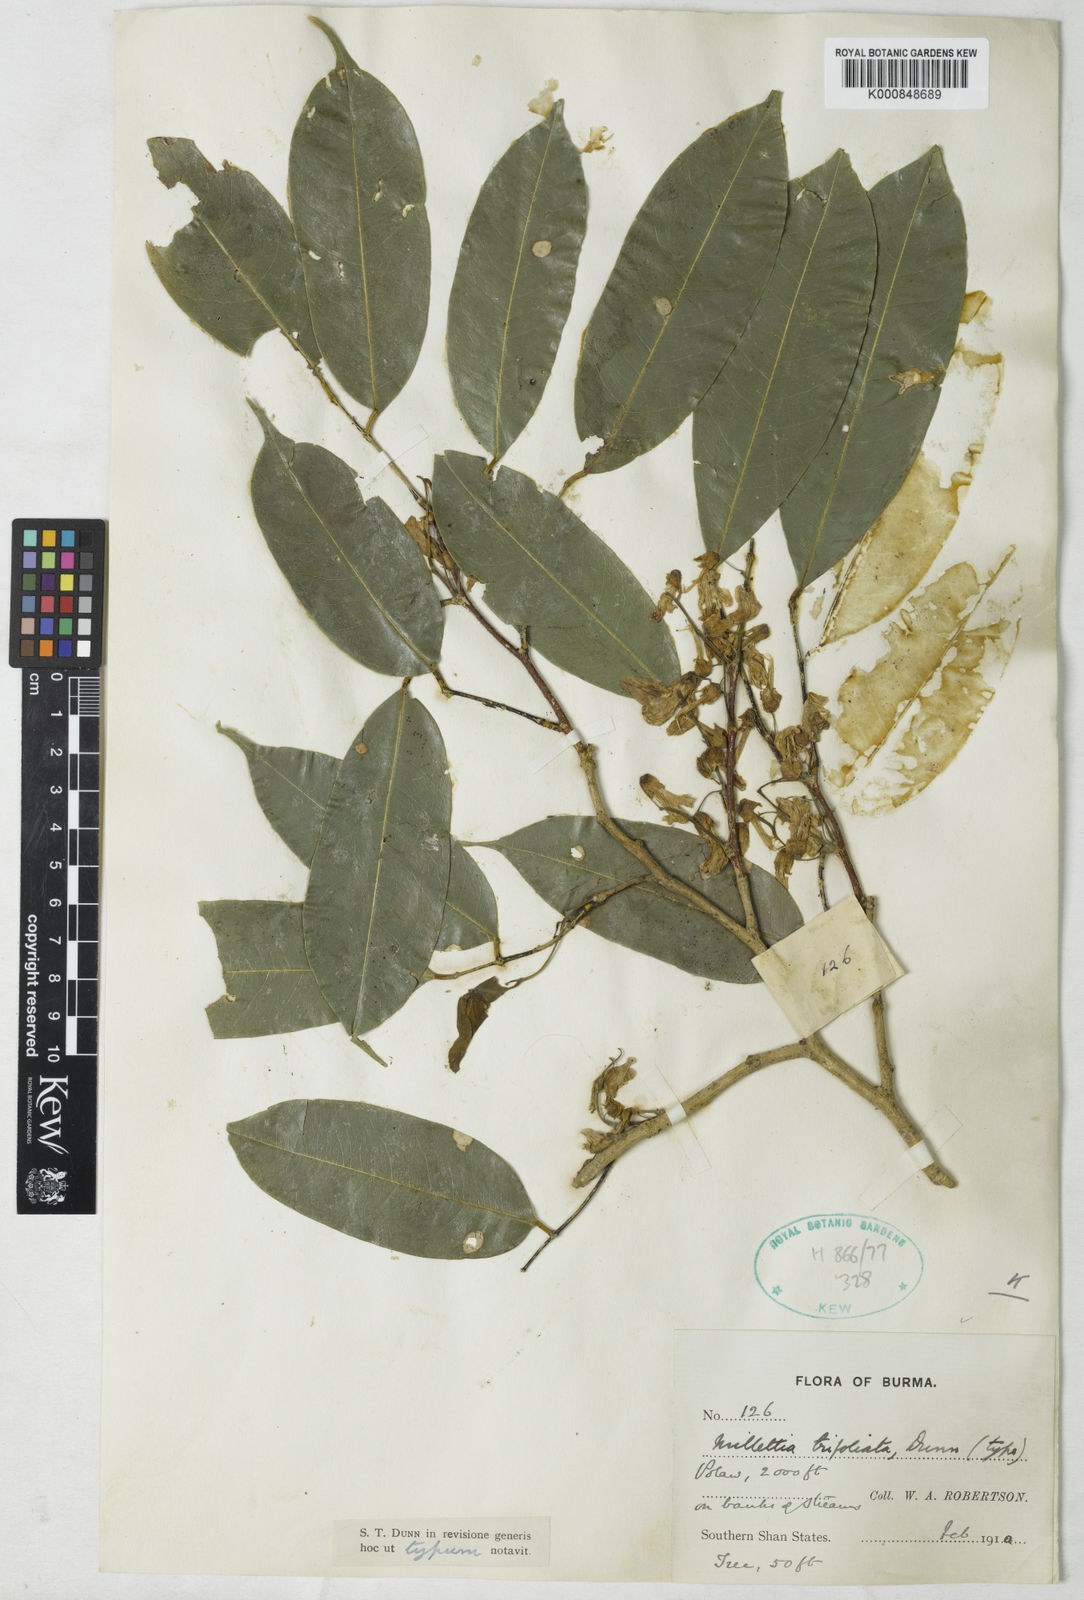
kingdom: Plantae
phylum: Tracheophyta
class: Magnoliopsida
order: Fabales
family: Fabaceae
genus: Millettia
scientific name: Millettia trifoliata
